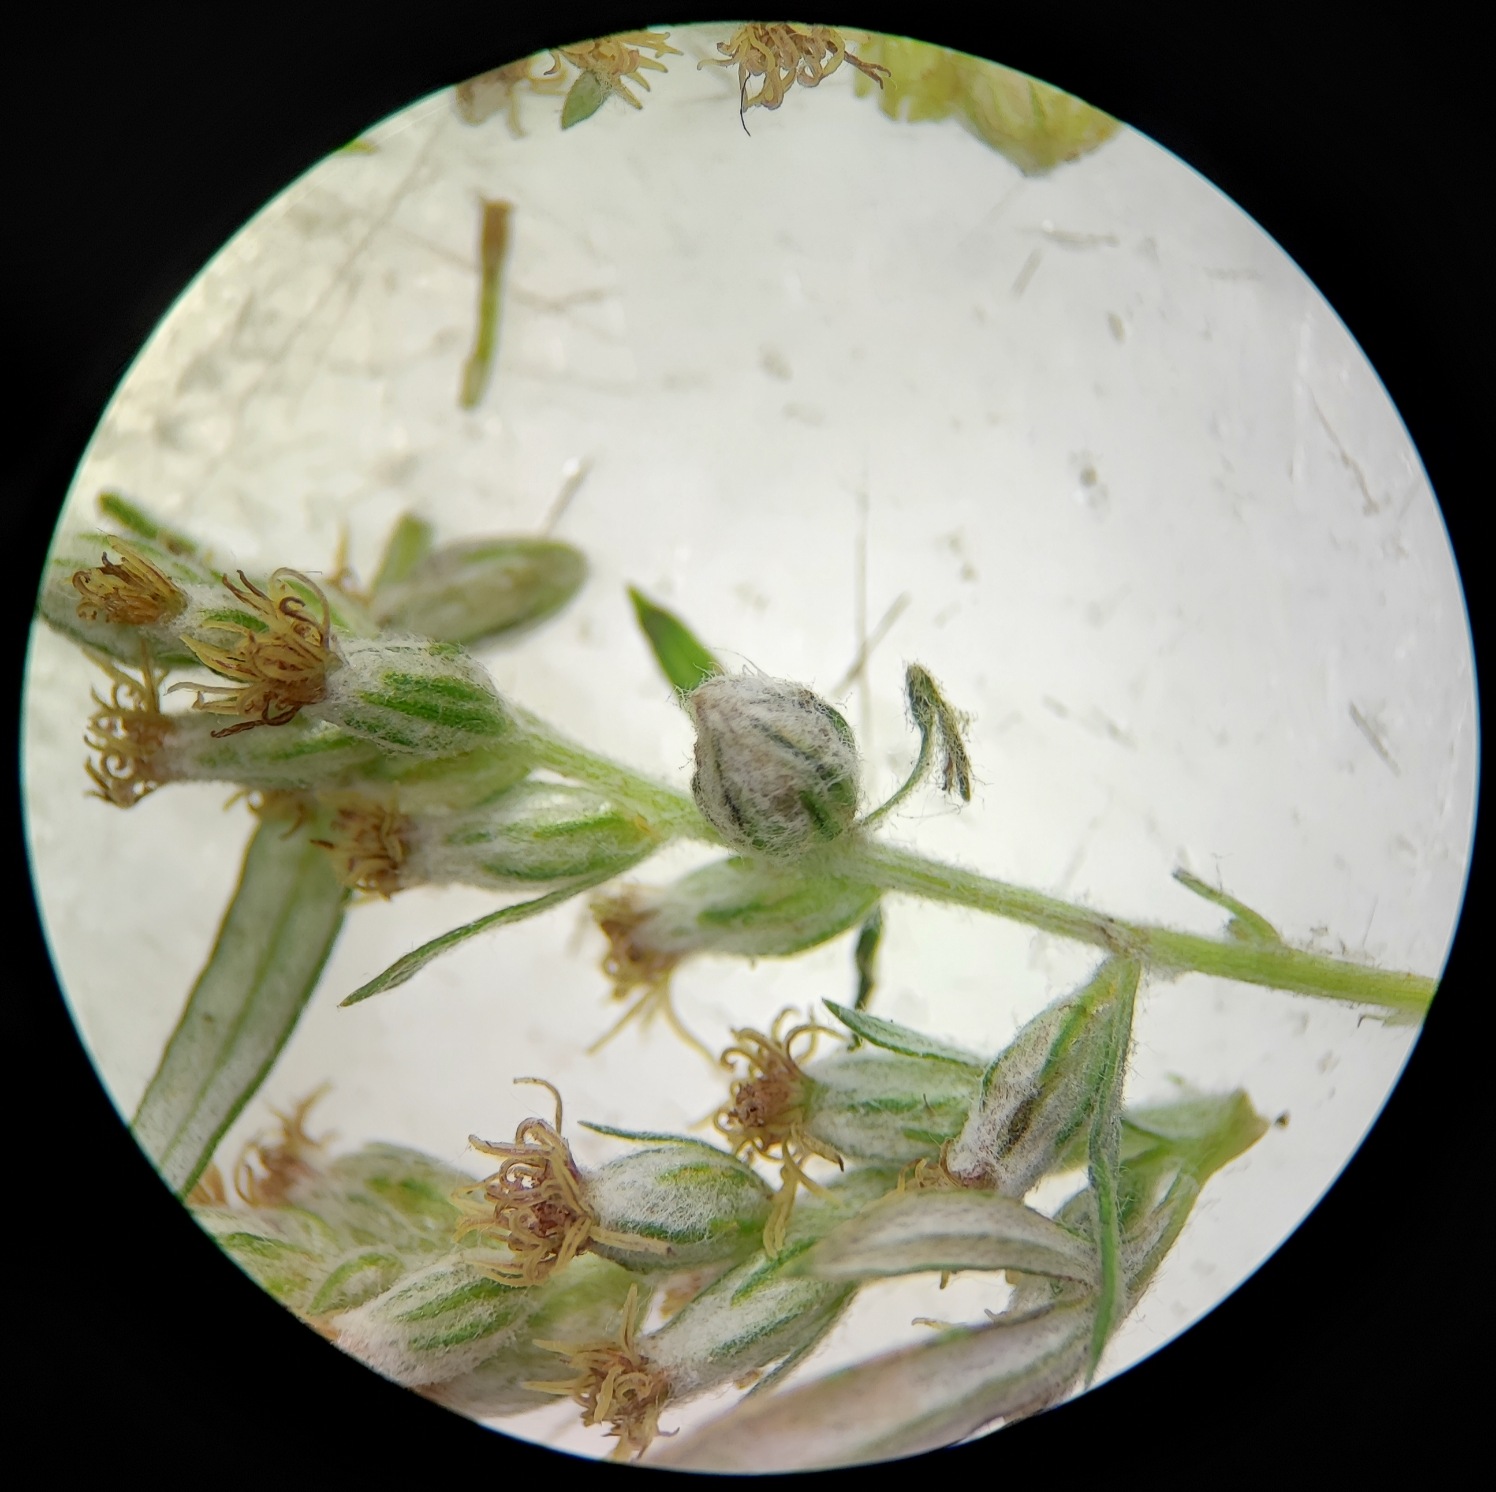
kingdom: Animalia
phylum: Arthropoda
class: Insecta
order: Diptera
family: Cecidomyiidae
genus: Ametrodiplosis
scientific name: Ametrodiplosis rudimentalis
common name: Bynkekurvgalmyg
